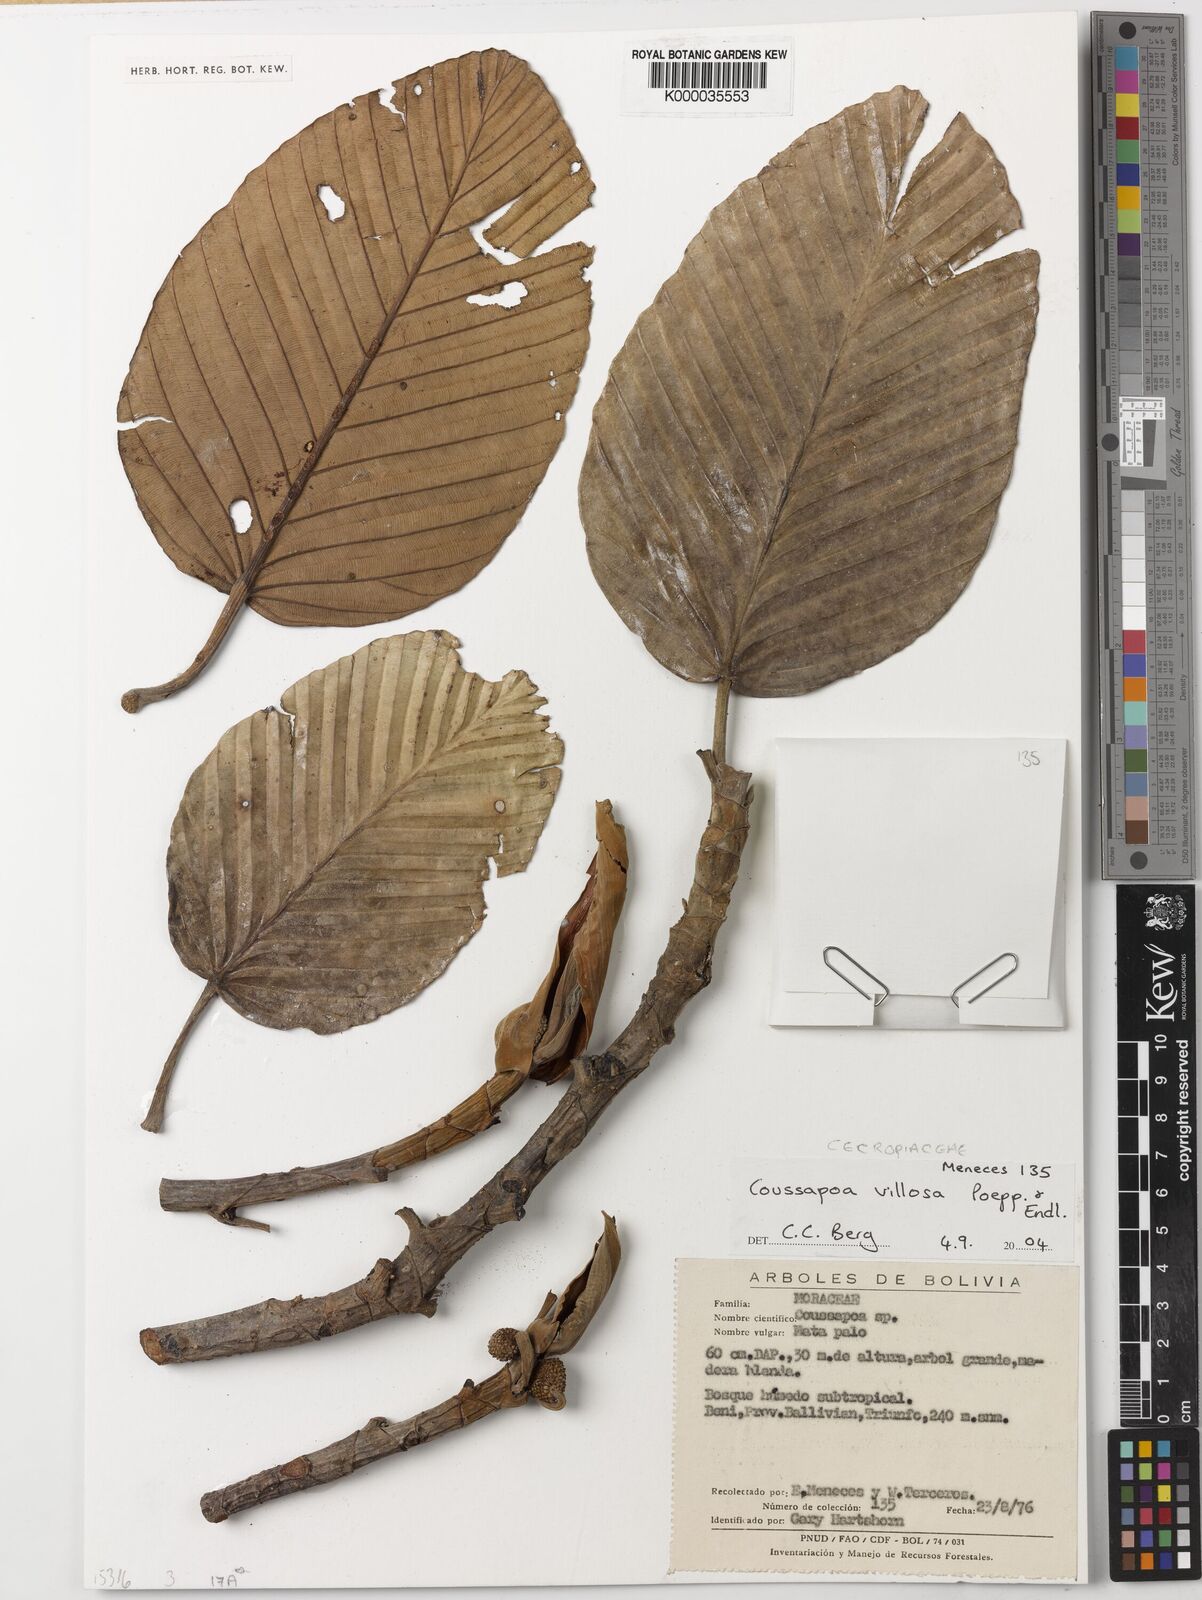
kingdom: Plantae
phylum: Tracheophyta
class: Magnoliopsida
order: Rosales
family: Urticaceae
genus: Coussapoa
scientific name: Coussapoa villosa
